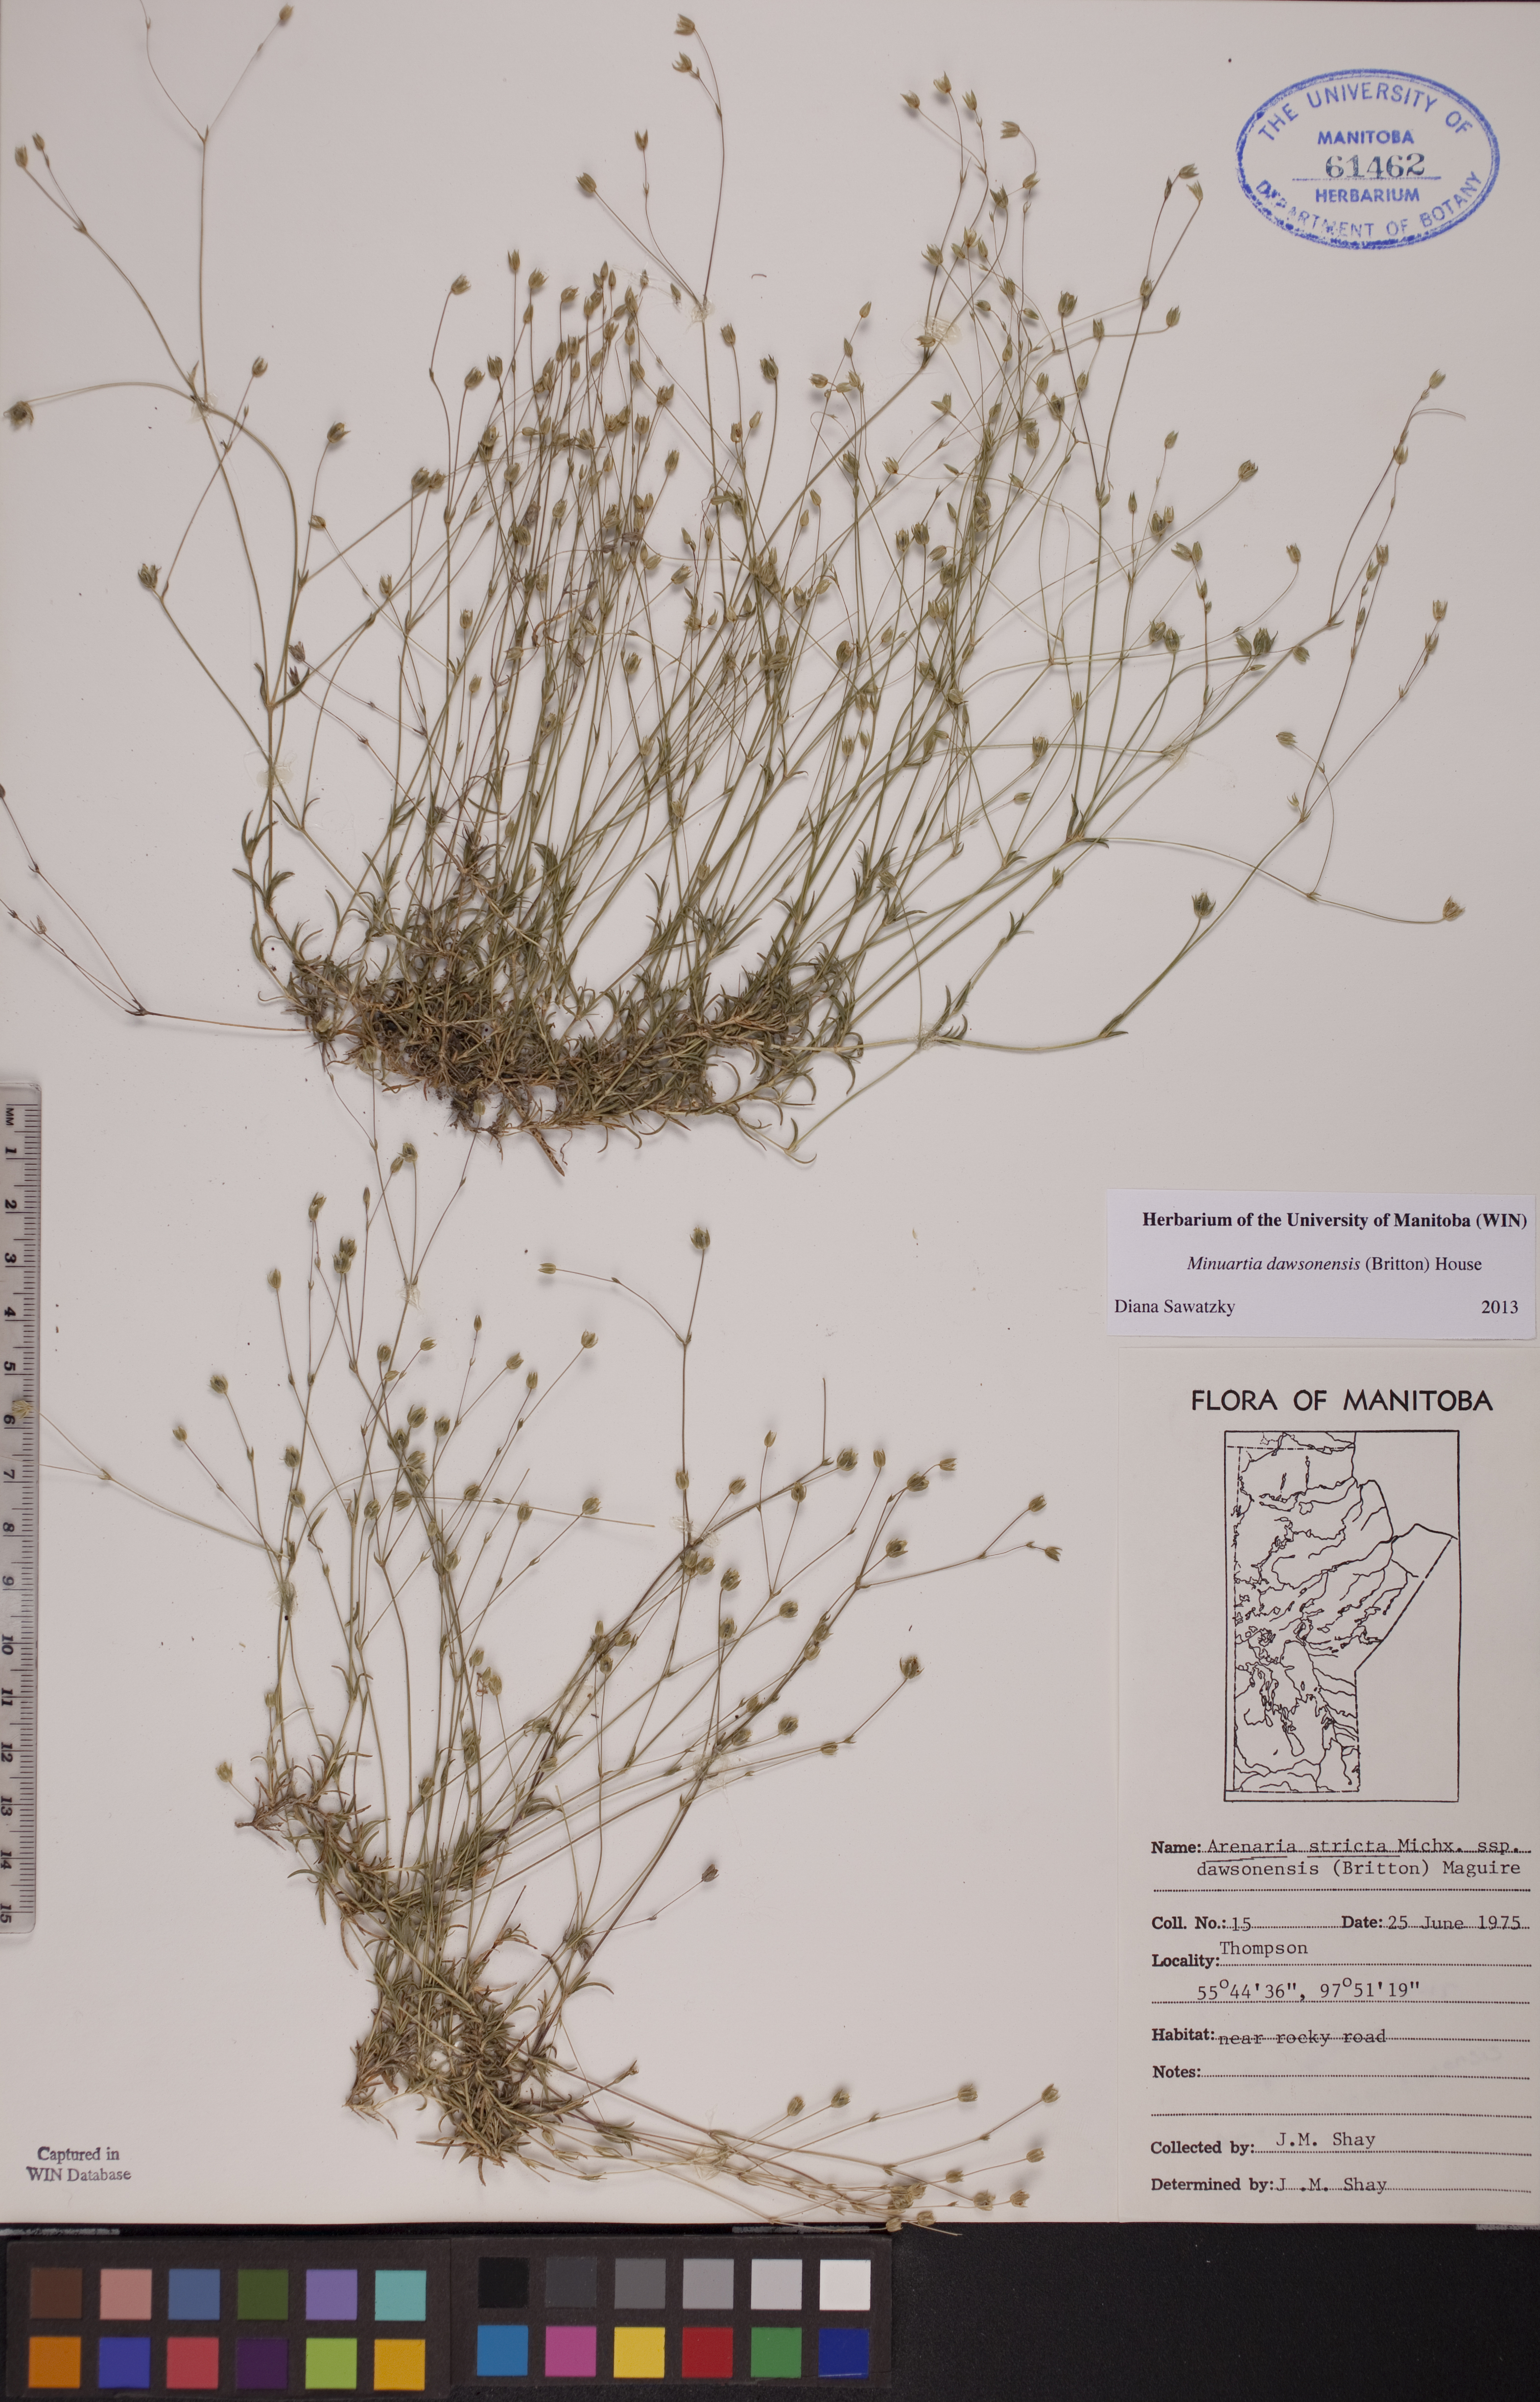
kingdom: Plantae
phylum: Tracheophyta
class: Magnoliopsida
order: Caryophyllales
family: Caryophyllaceae
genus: Sabulina
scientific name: Sabulina dawsonensis
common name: Dawson's cockle
